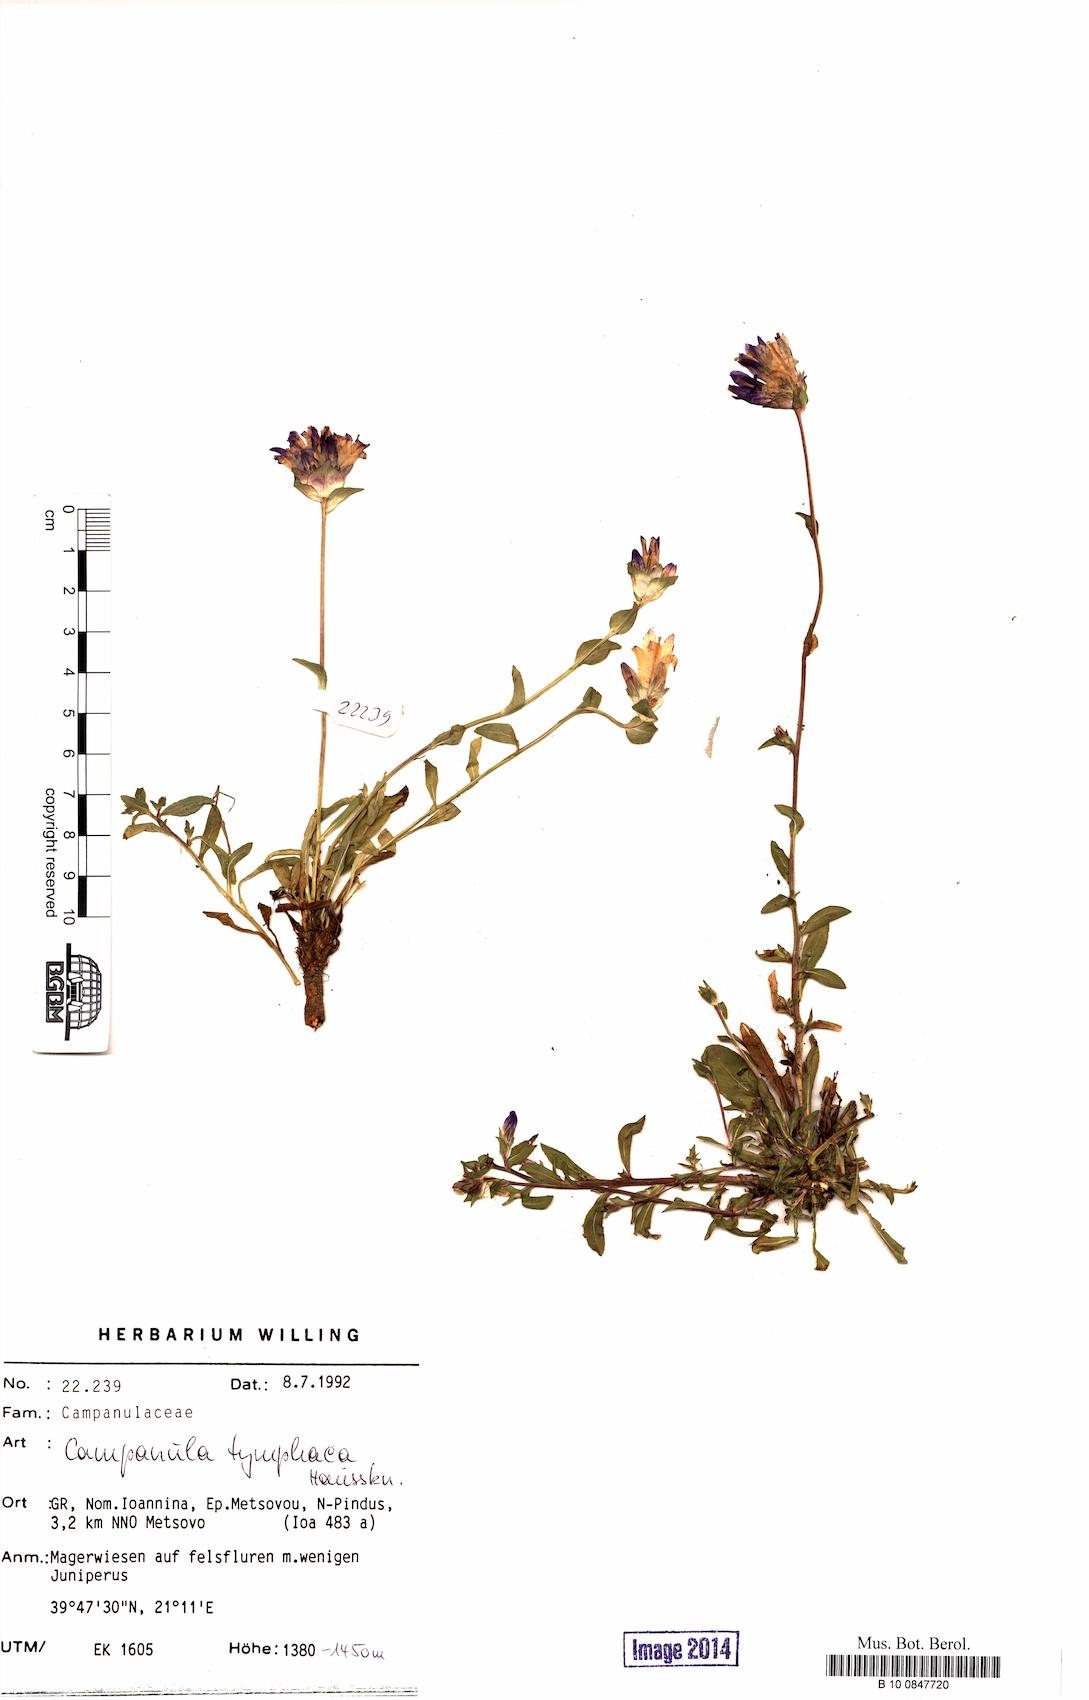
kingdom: Plantae
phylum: Tracheophyta
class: Magnoliopsida
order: Asterales
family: Campanulaceae
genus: Campanula
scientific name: Campanula tymphaea
